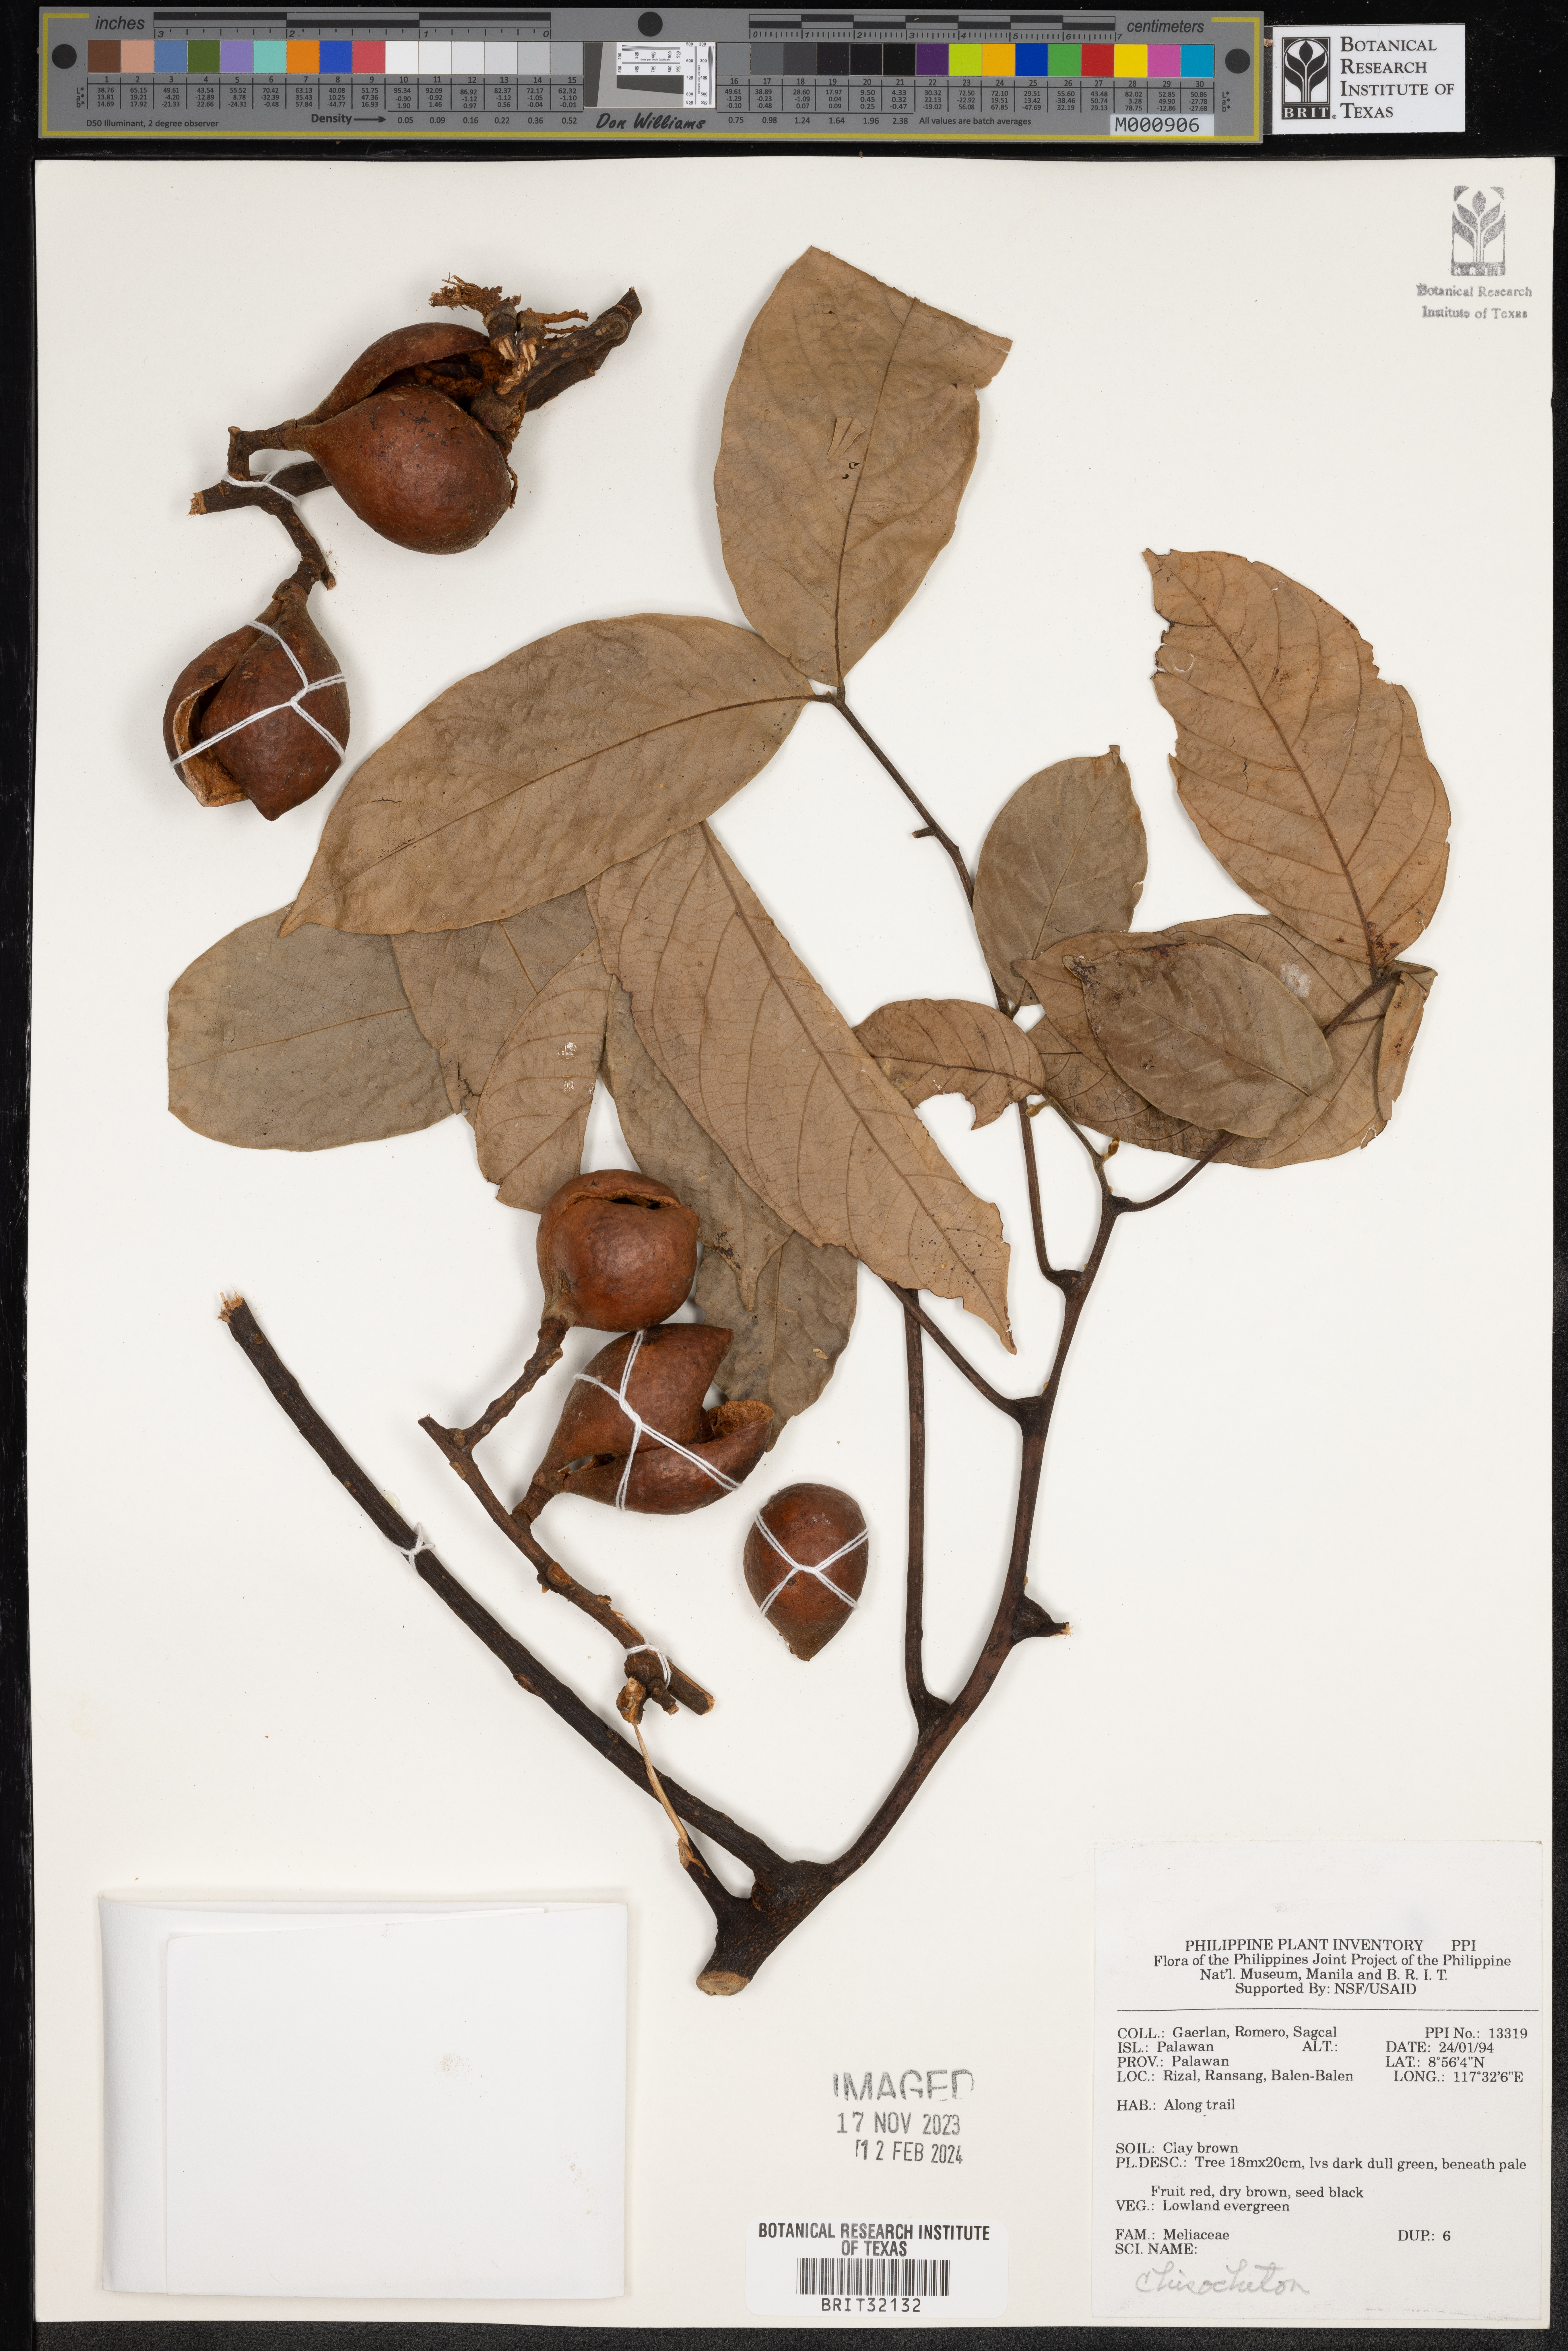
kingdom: Plantae
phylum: Tracheophyta
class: Magnoliopsida
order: Sapindales
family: Meliaceae
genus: Chisocheton
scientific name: Chisocheton
